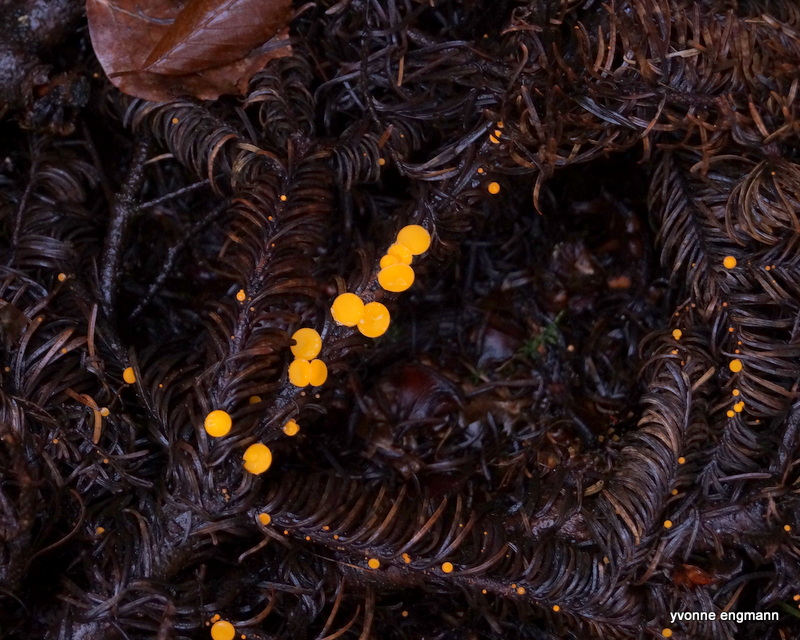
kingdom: Fungi
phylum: Ascomycota
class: Pezizomycetes
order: Pezizales
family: Sarcoscyphaceae
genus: Pithya
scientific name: Pithya vulgaris
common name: stor dukatbæger
